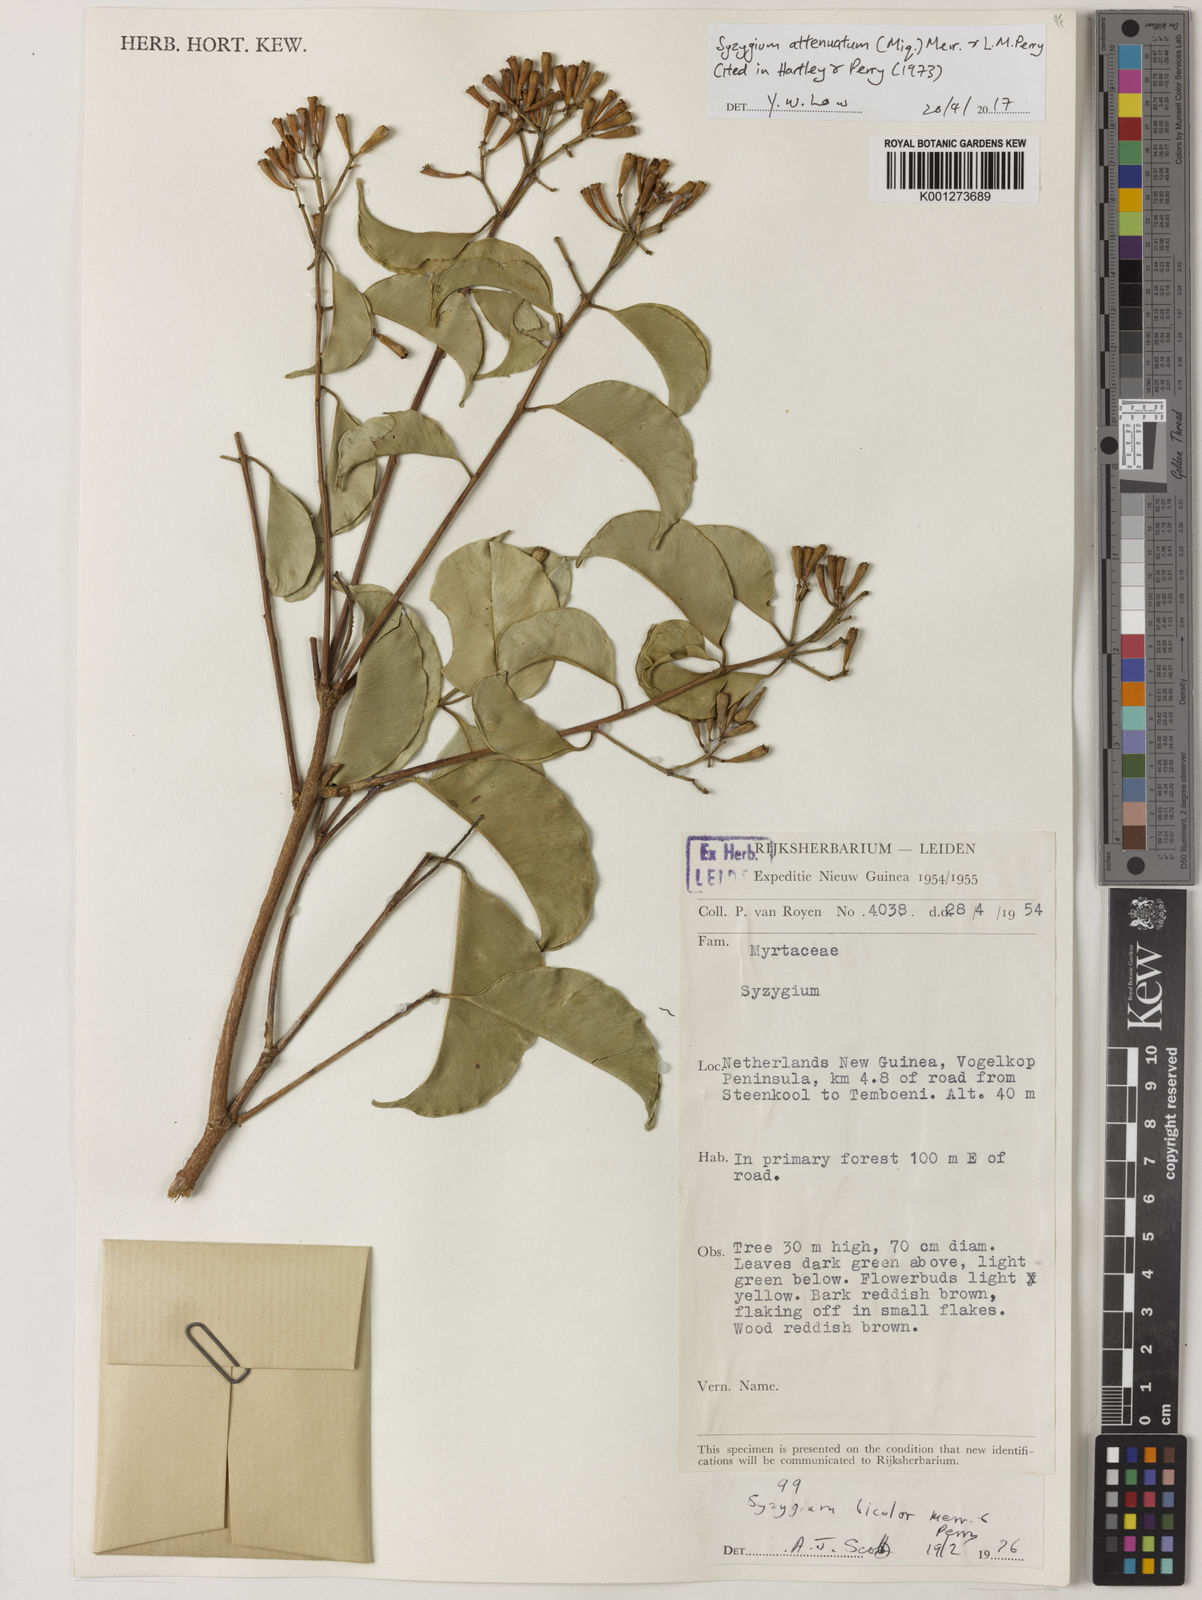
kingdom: Plantae
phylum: Tracheophyta
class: Magnoliopsida
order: Myrtales
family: Myrtaceae
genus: Syzygium
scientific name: Syzygium attenuatum
